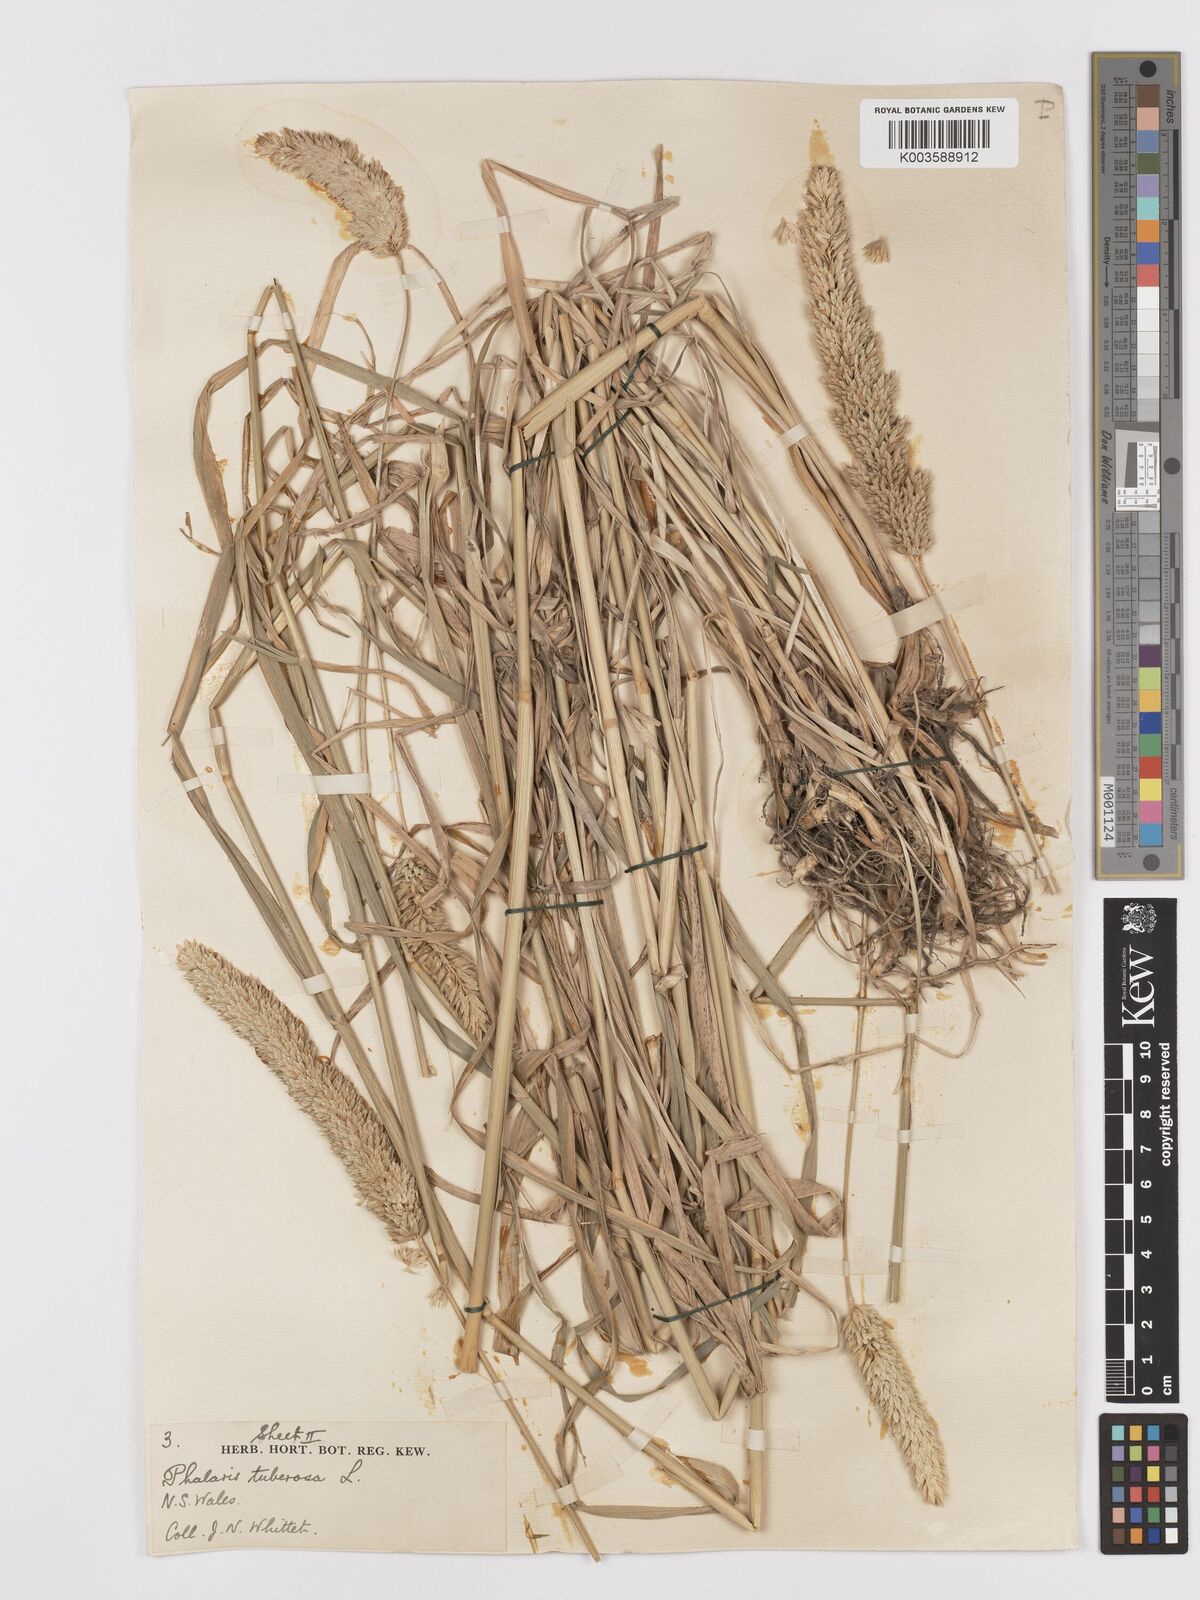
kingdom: Plantae
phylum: Tracheophyta
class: Liliopsida
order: Poales
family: Poaceae
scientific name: Poaceae
